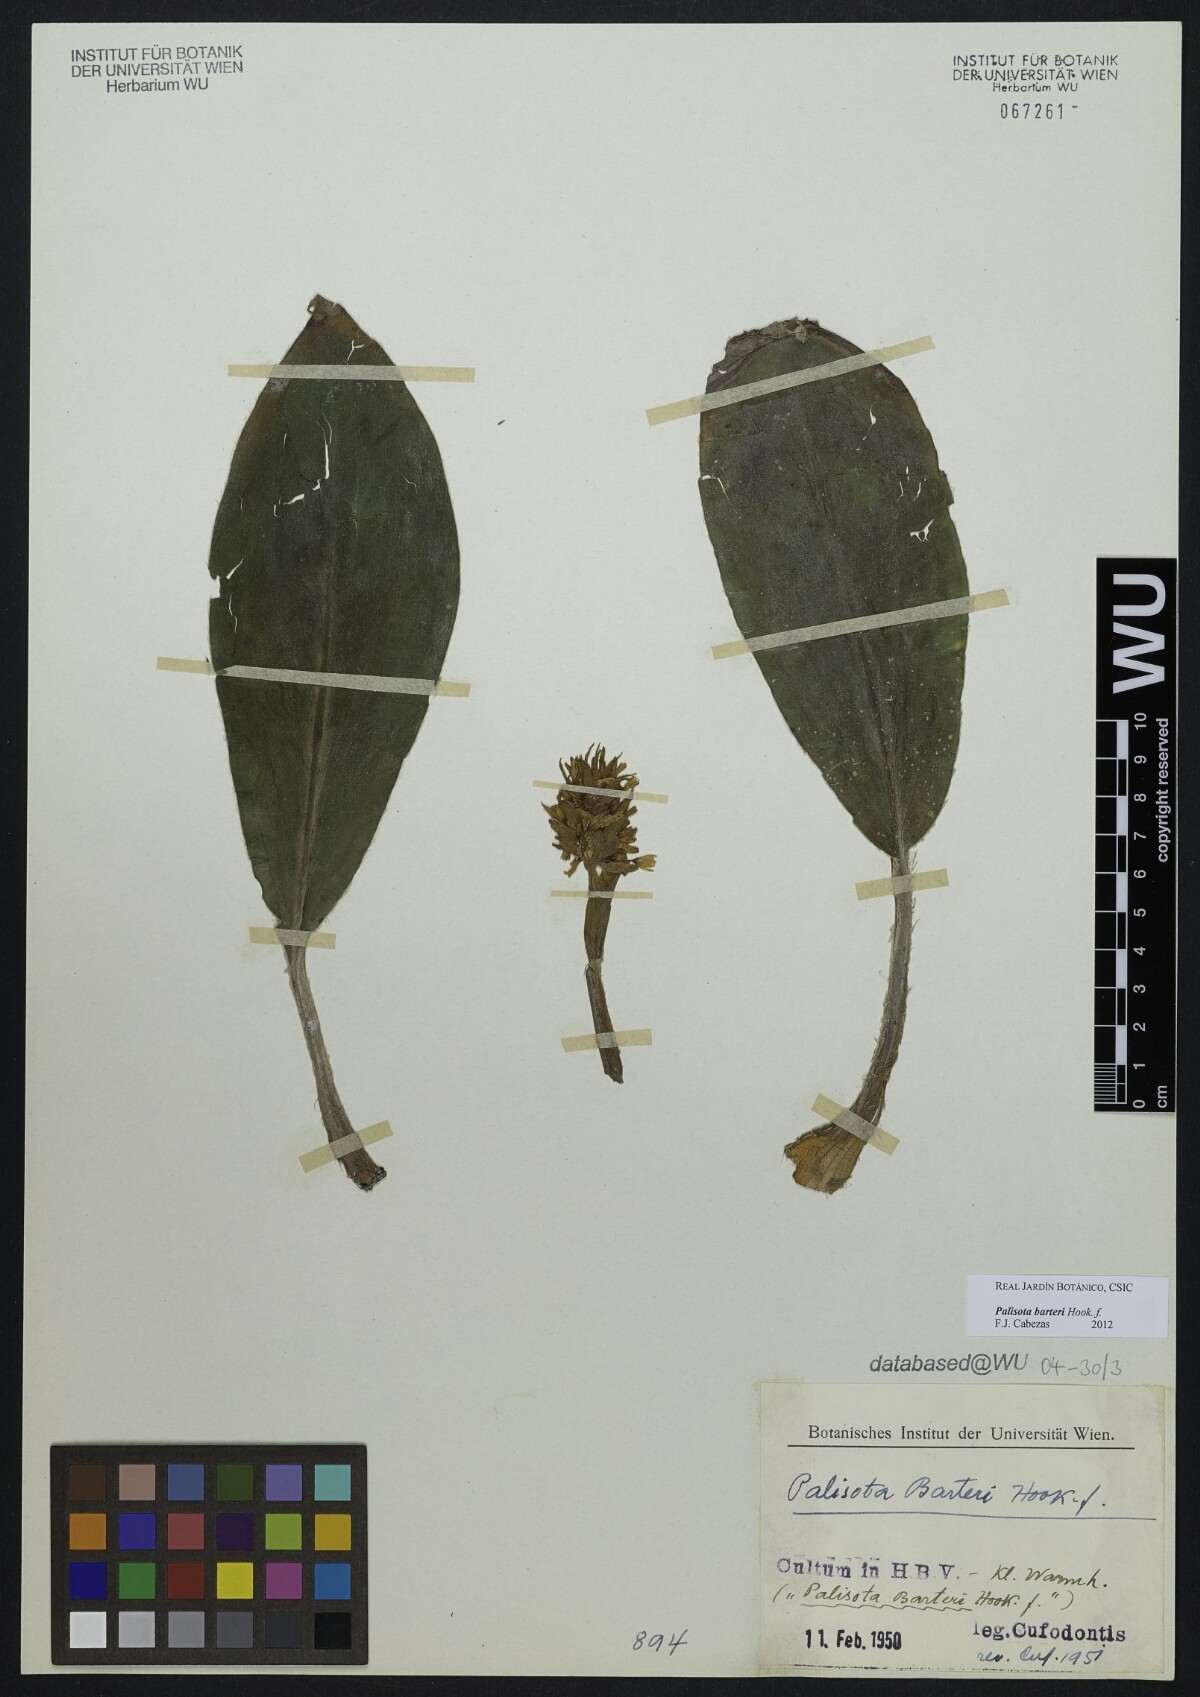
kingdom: Plantae
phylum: Tracheophyta
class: Liliopsida
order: Commelinales
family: Commelinaceae
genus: Palisota
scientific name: Palisota barteri
